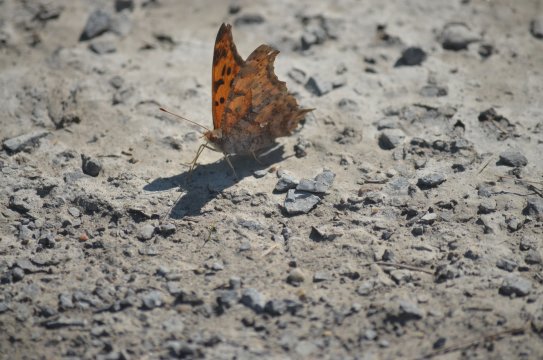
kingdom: Animalia
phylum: Arthropoda
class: Insecta
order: Lepidoptera
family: Nymphalidae
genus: Polygonia
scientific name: Polygonia interrogationis
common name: Question Mark
